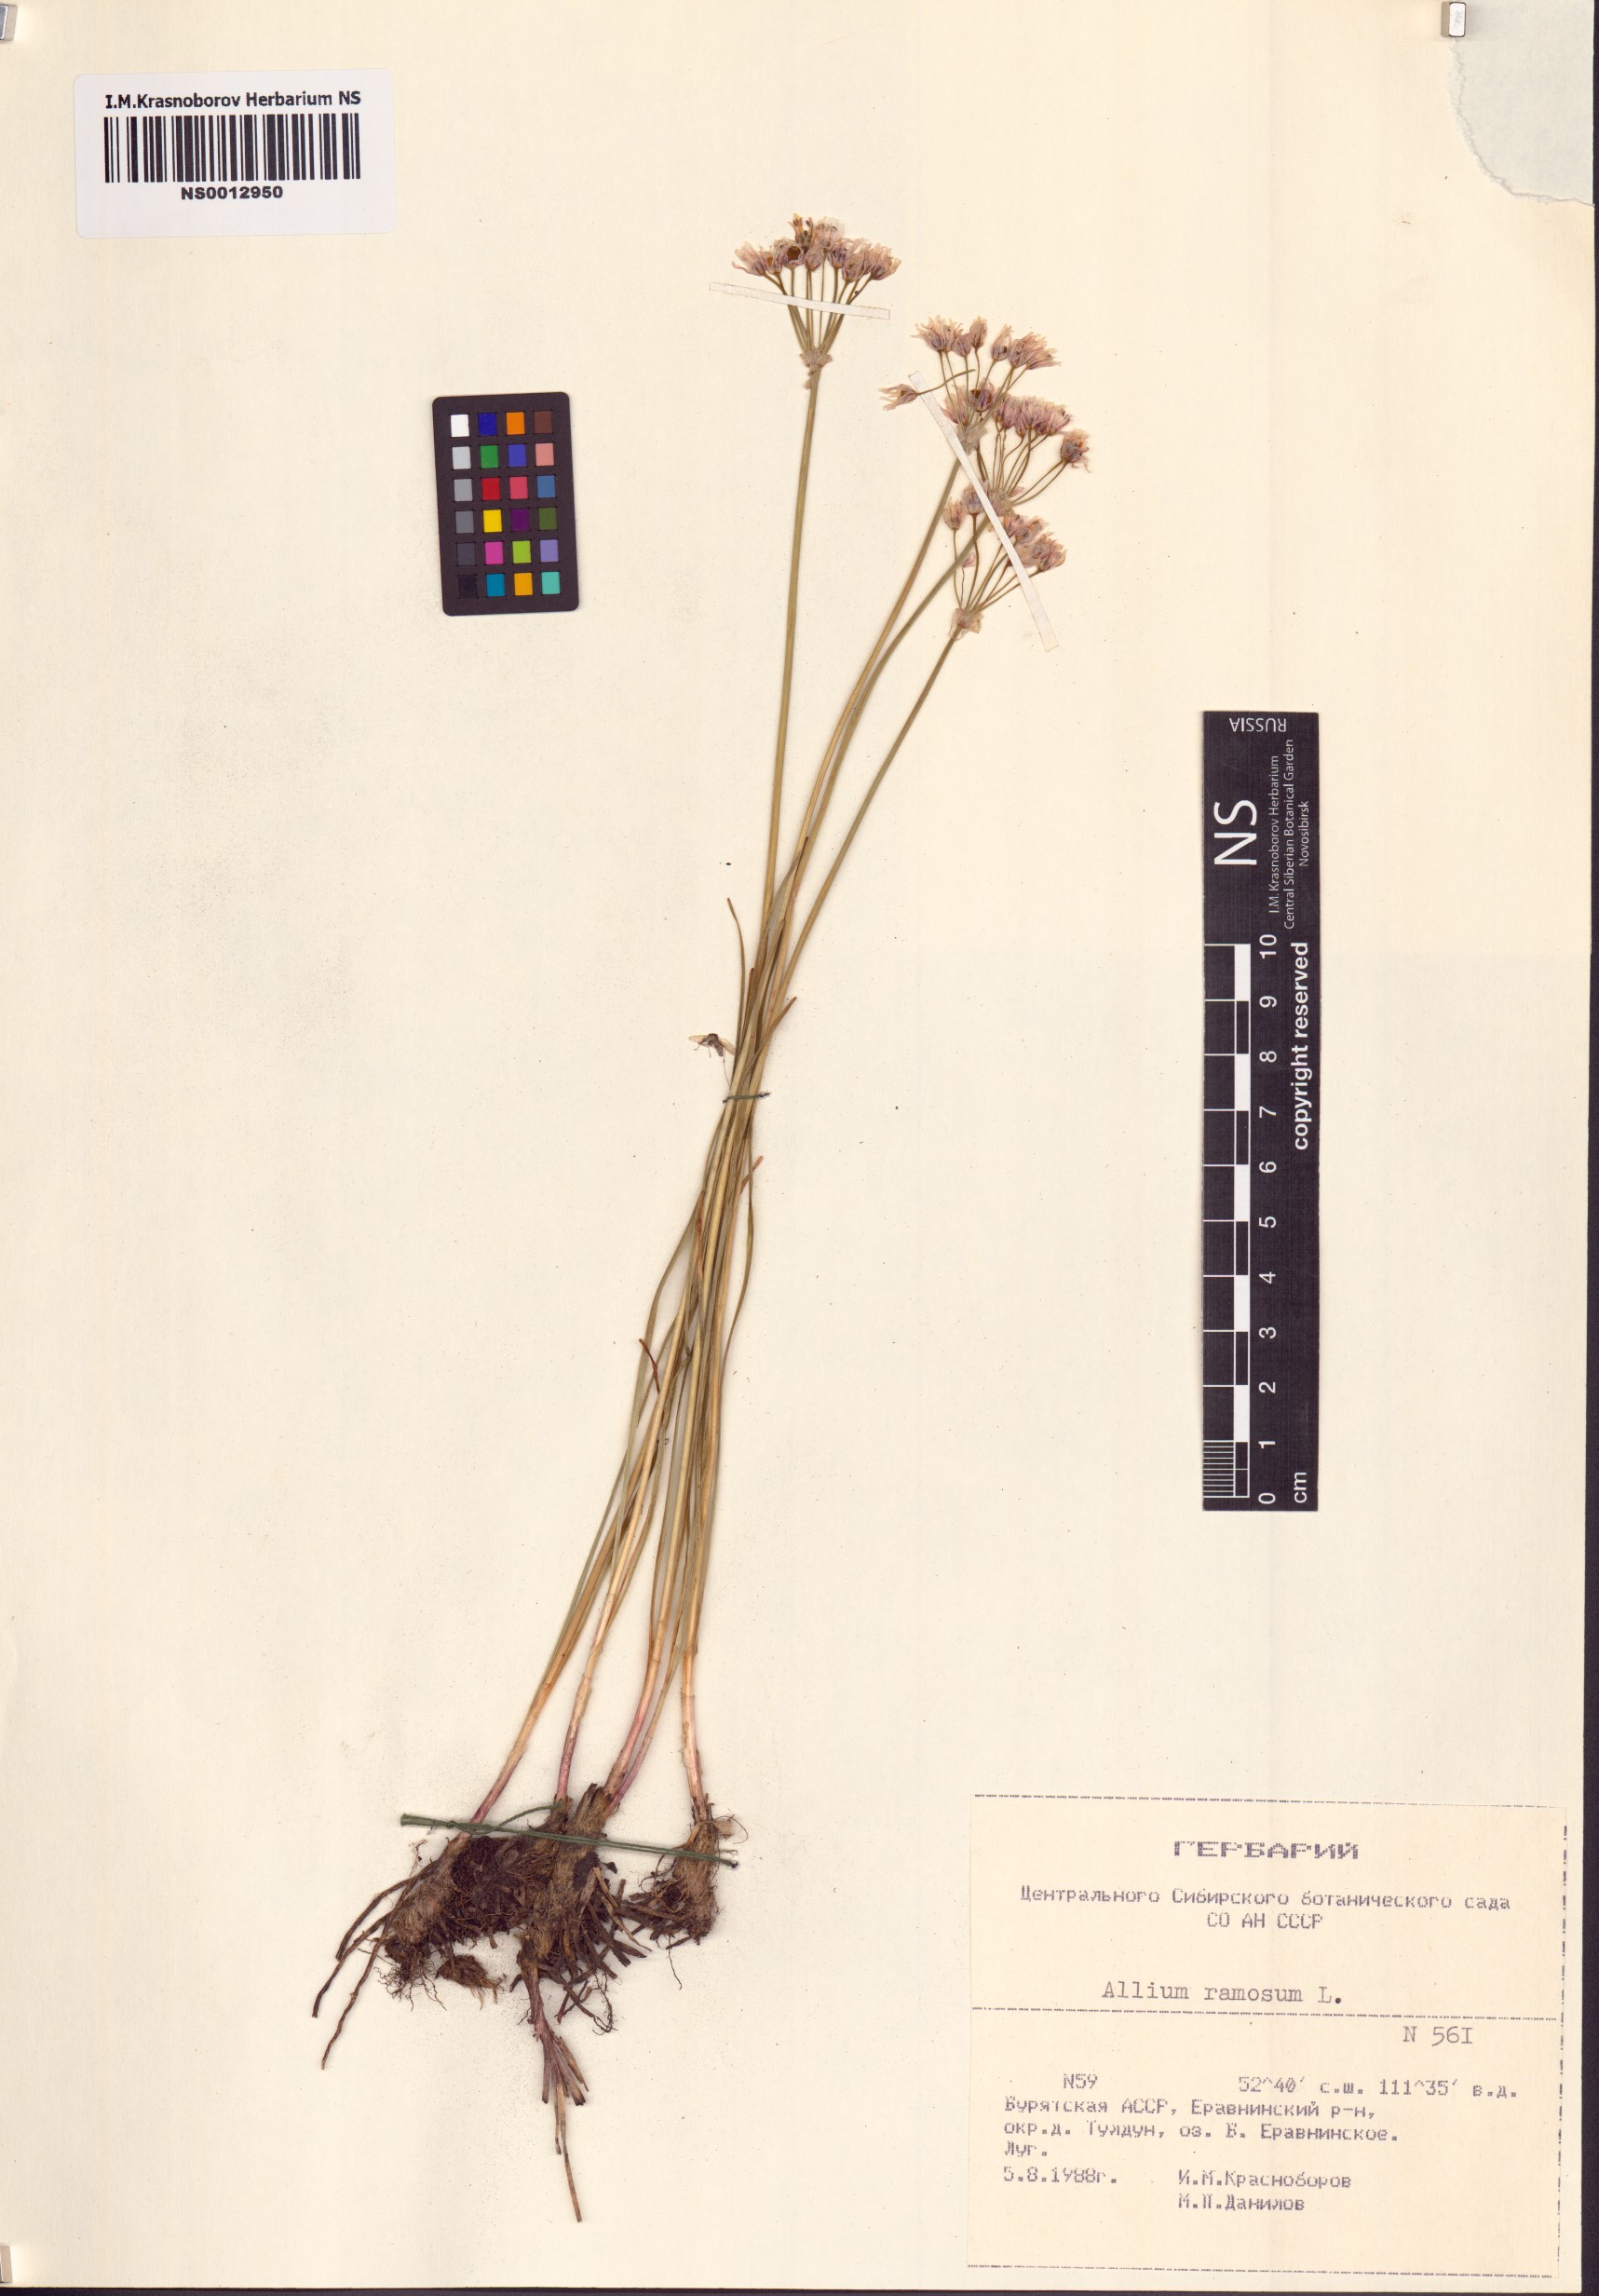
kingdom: Plantae
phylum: Tracheophyta
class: Liliopsida
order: Asparagales
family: Amaryllidaceae
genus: Allium
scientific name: Allium ramosum
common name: Fragrant garlic
